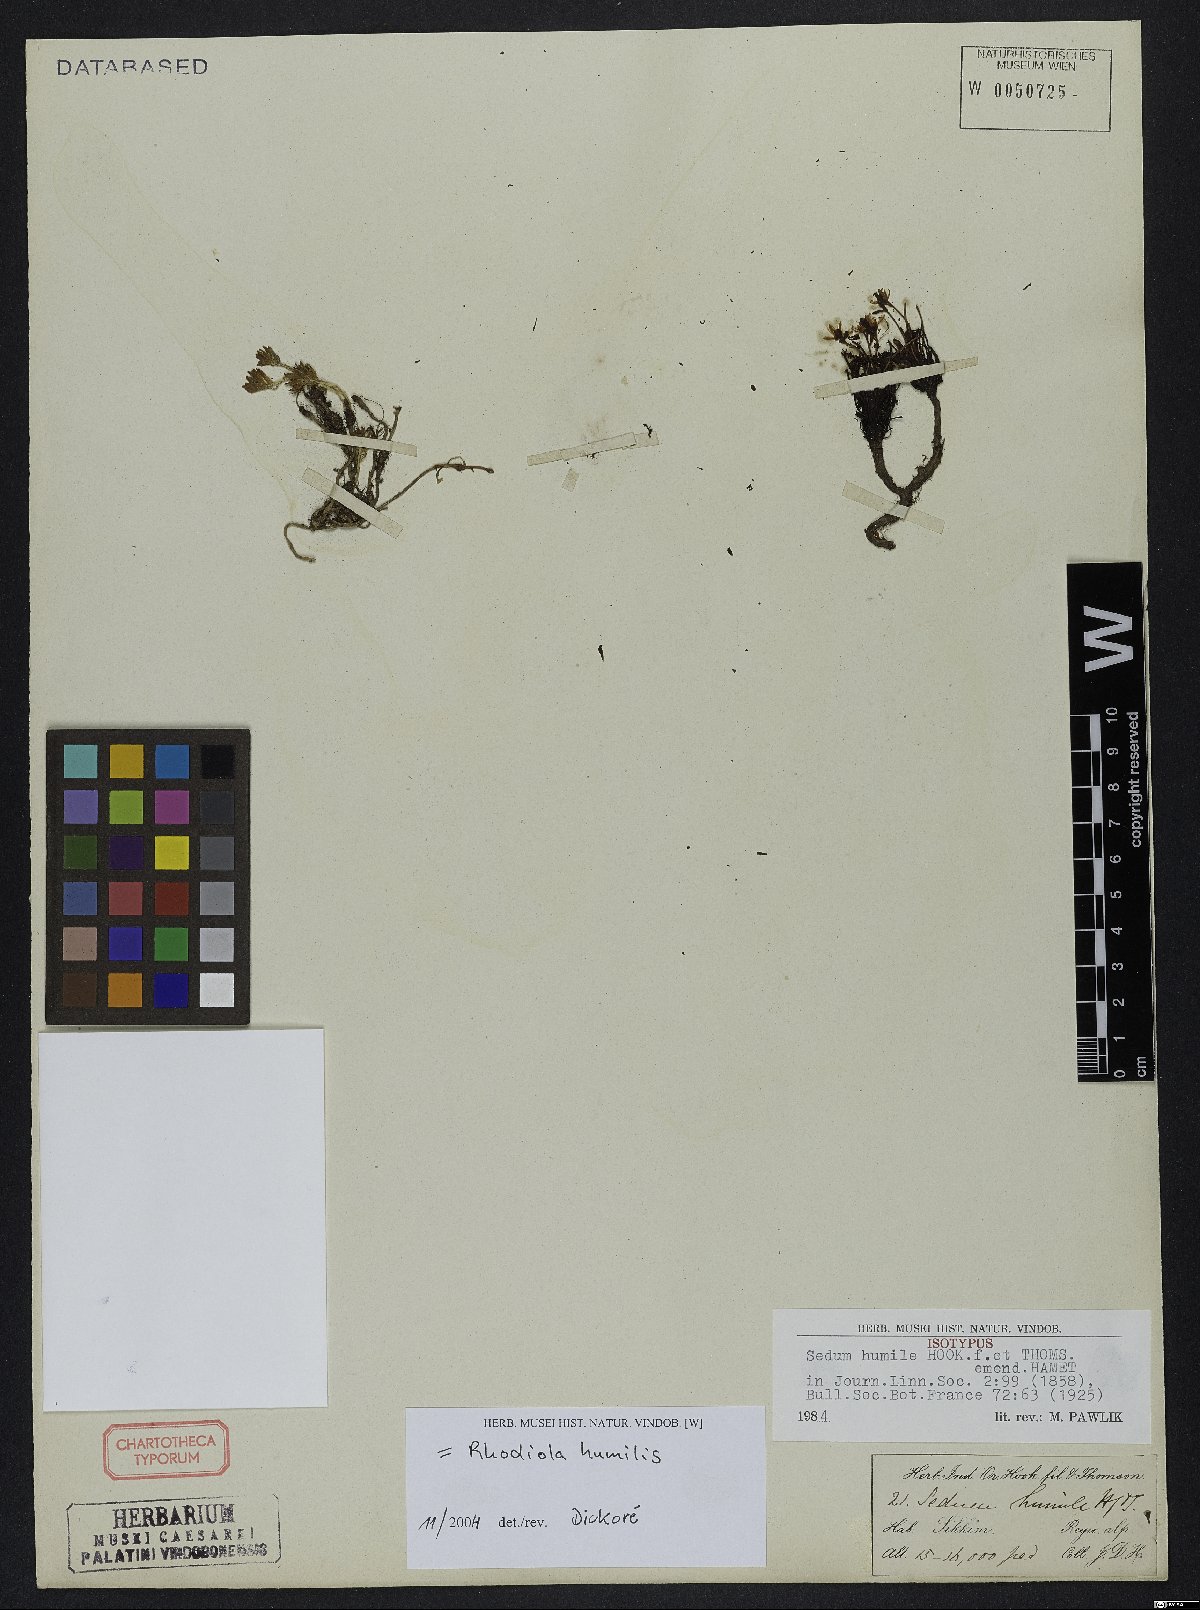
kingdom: Plantae
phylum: Tracheophyta
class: Magnoliopsida
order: Saxifragales
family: Crassulaceae
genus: Rhodiola
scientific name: Rhodiola humilis
